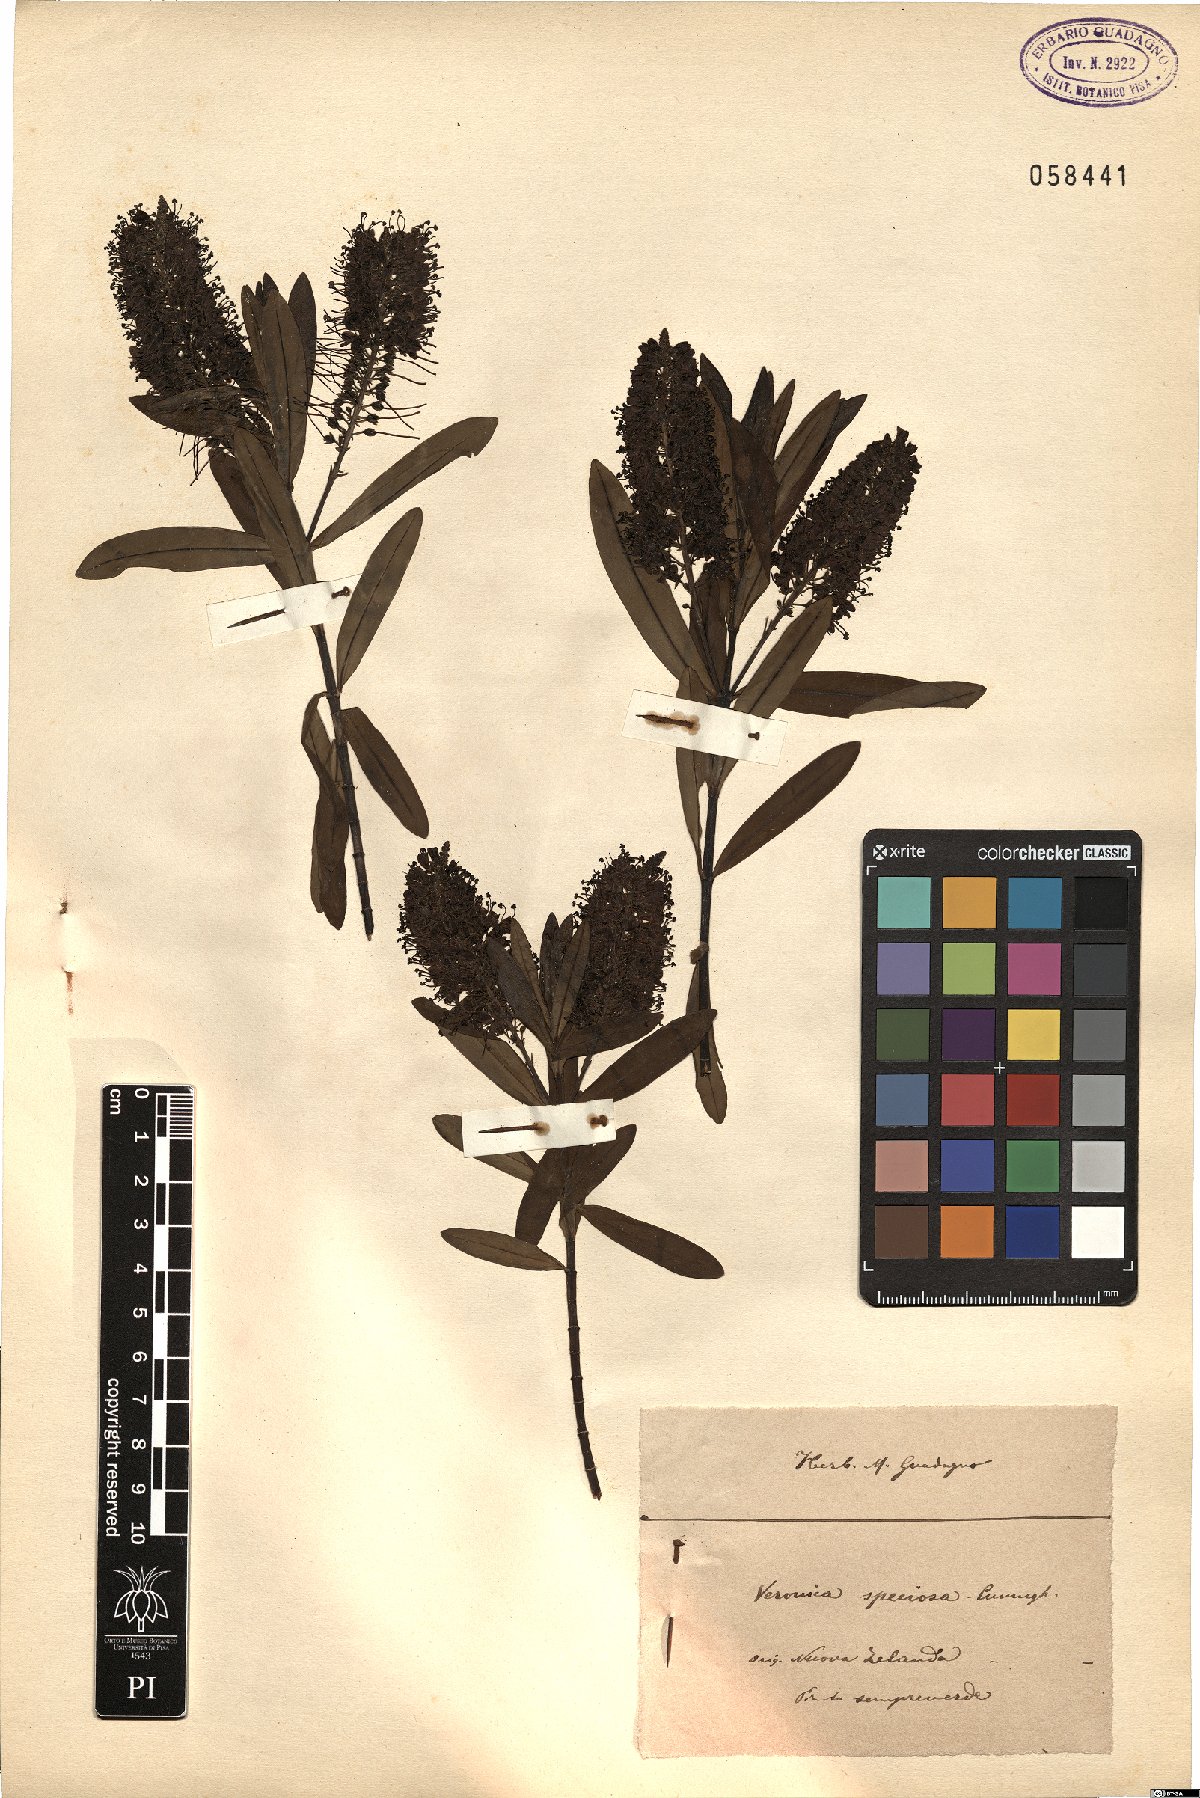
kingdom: Plantae
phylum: Tracheophyta
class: Magnoliopsida
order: Lamiales
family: Plantaginaceae
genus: Veronica
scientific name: Veronica speciosa
